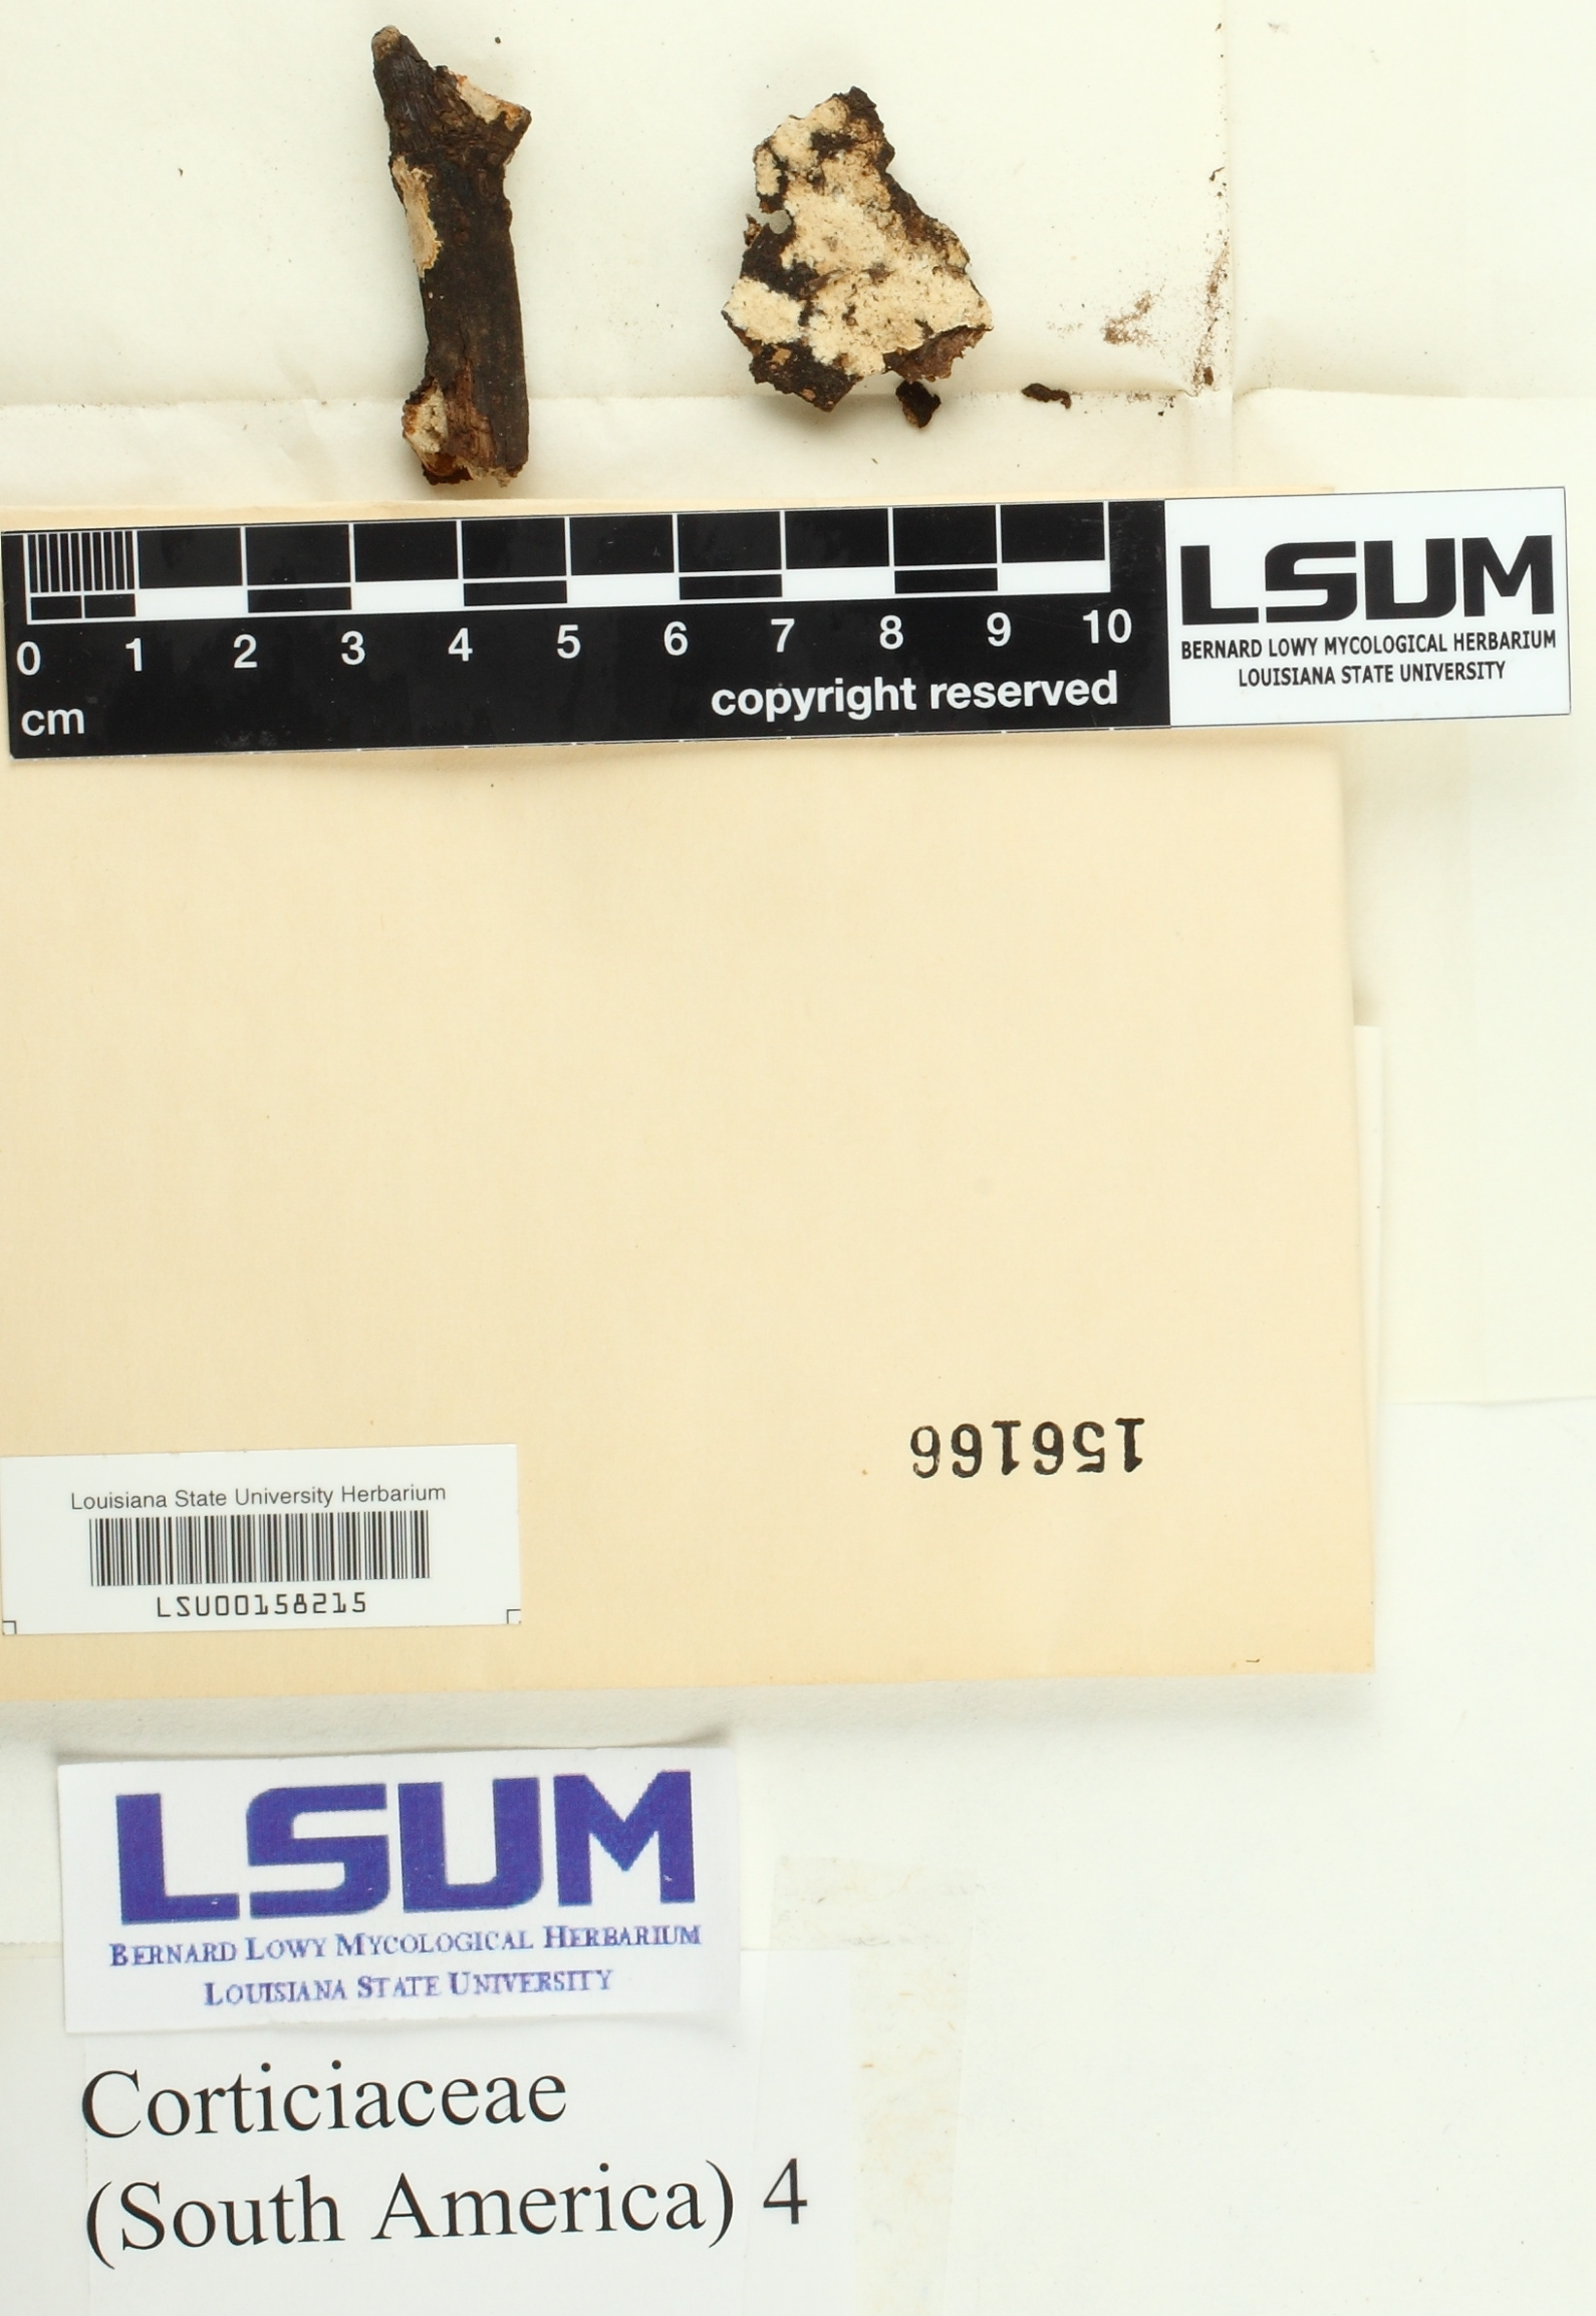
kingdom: Fungi
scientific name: Fungi
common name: Fungi
